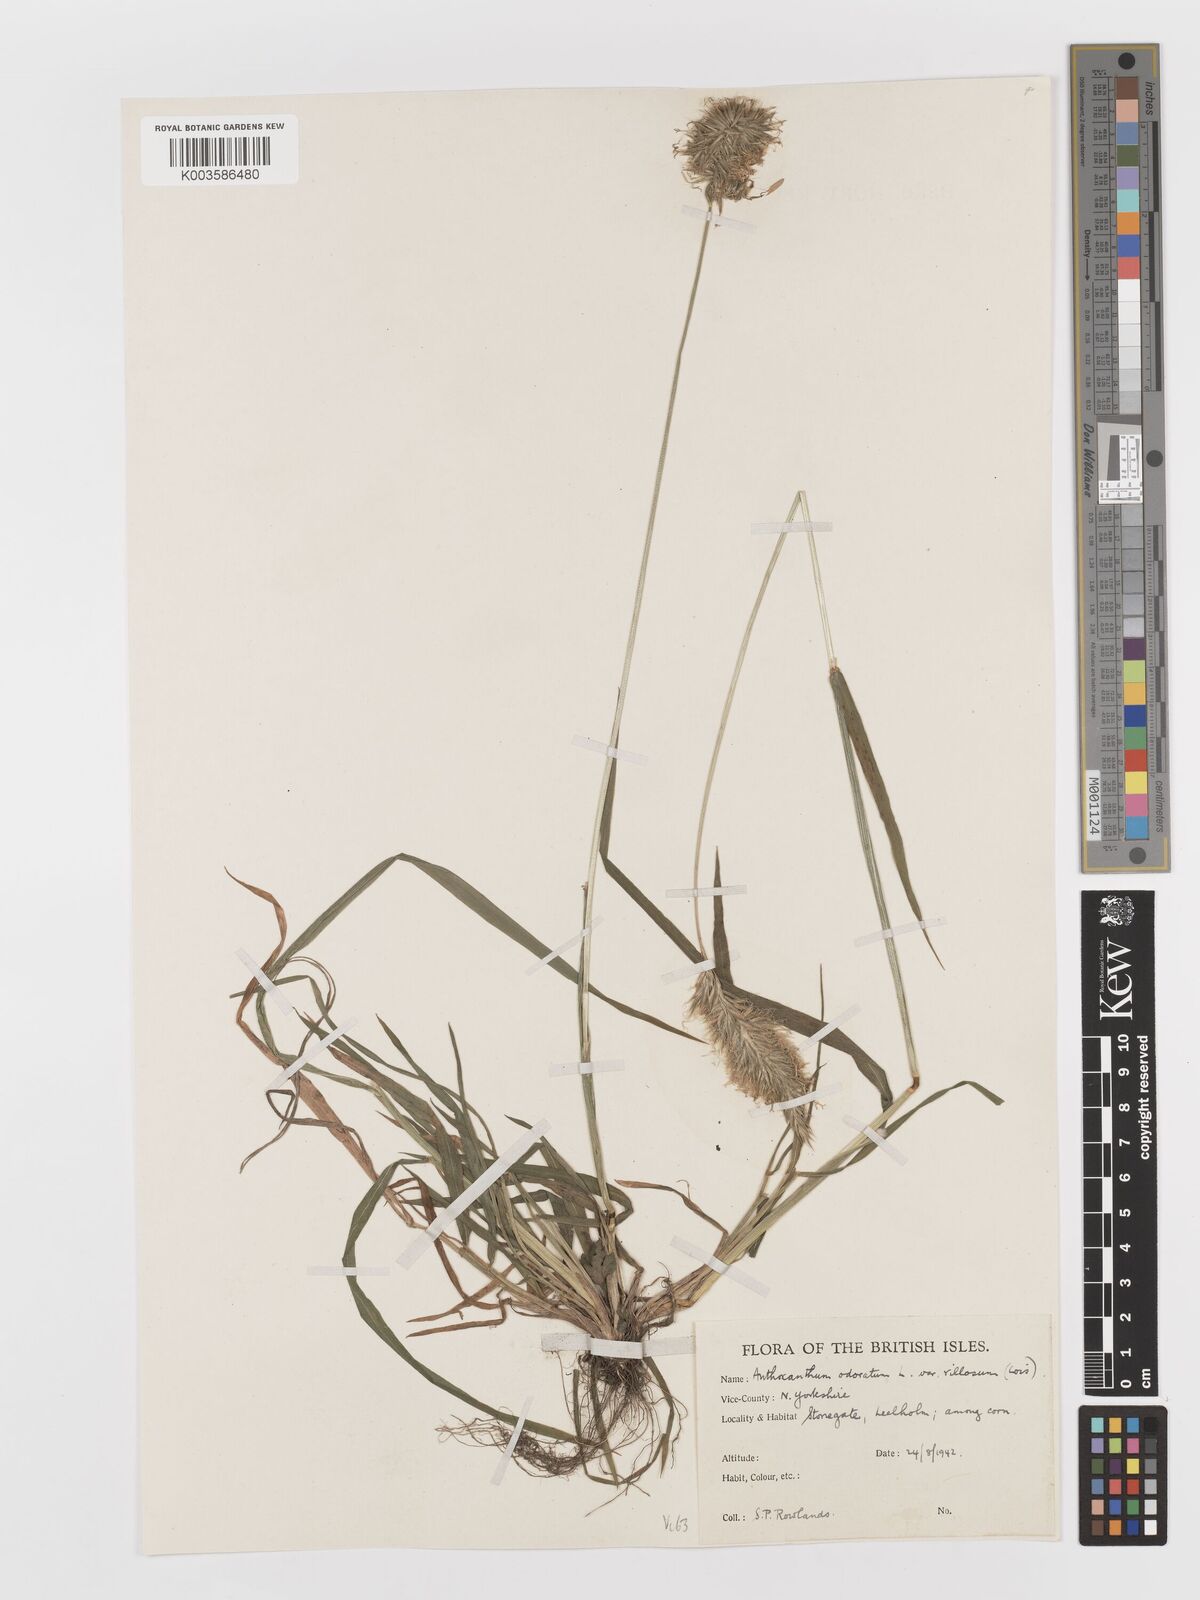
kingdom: Plantae
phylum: Tracheophyta
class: Liliopsida
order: Poales
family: Poaceae
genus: Anthoxanthum
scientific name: Anthoxanthum odoratum
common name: Sweet vernalgrass
